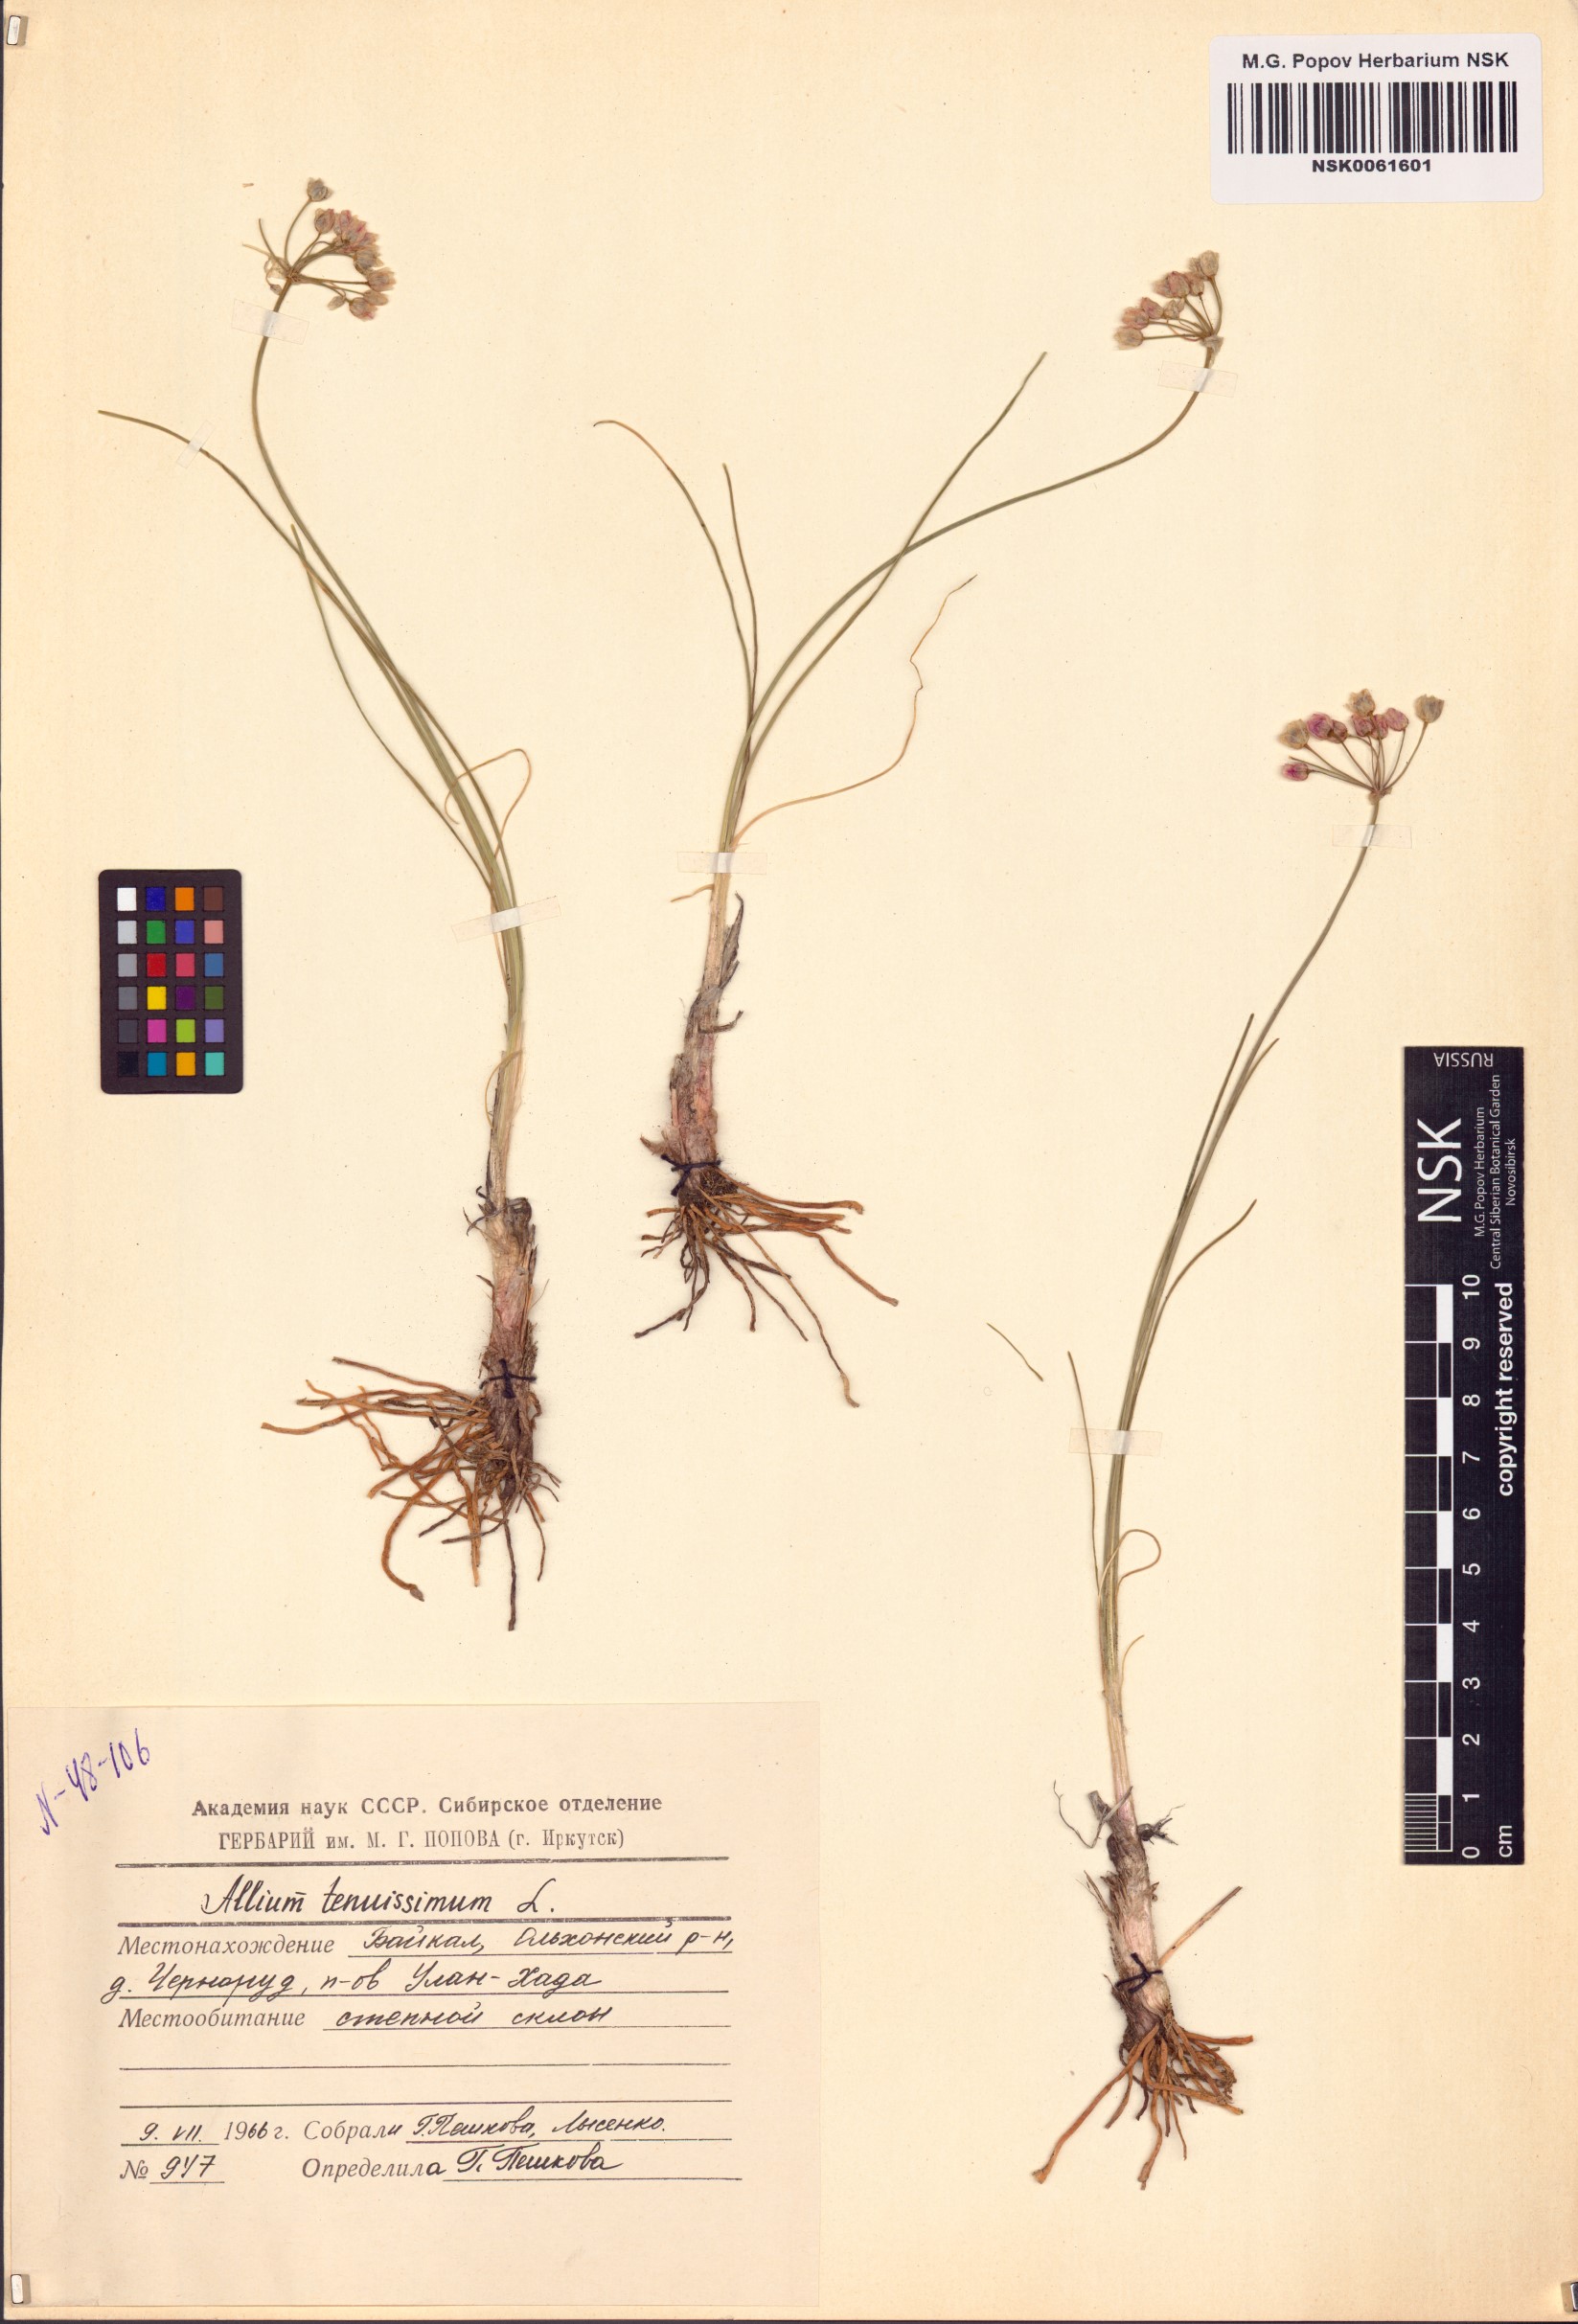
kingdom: Plantae
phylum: Tracheophyta
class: Liliopsida
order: Asparagales
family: Amaryllidaceae
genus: Allium
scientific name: Allium tenuissimum
